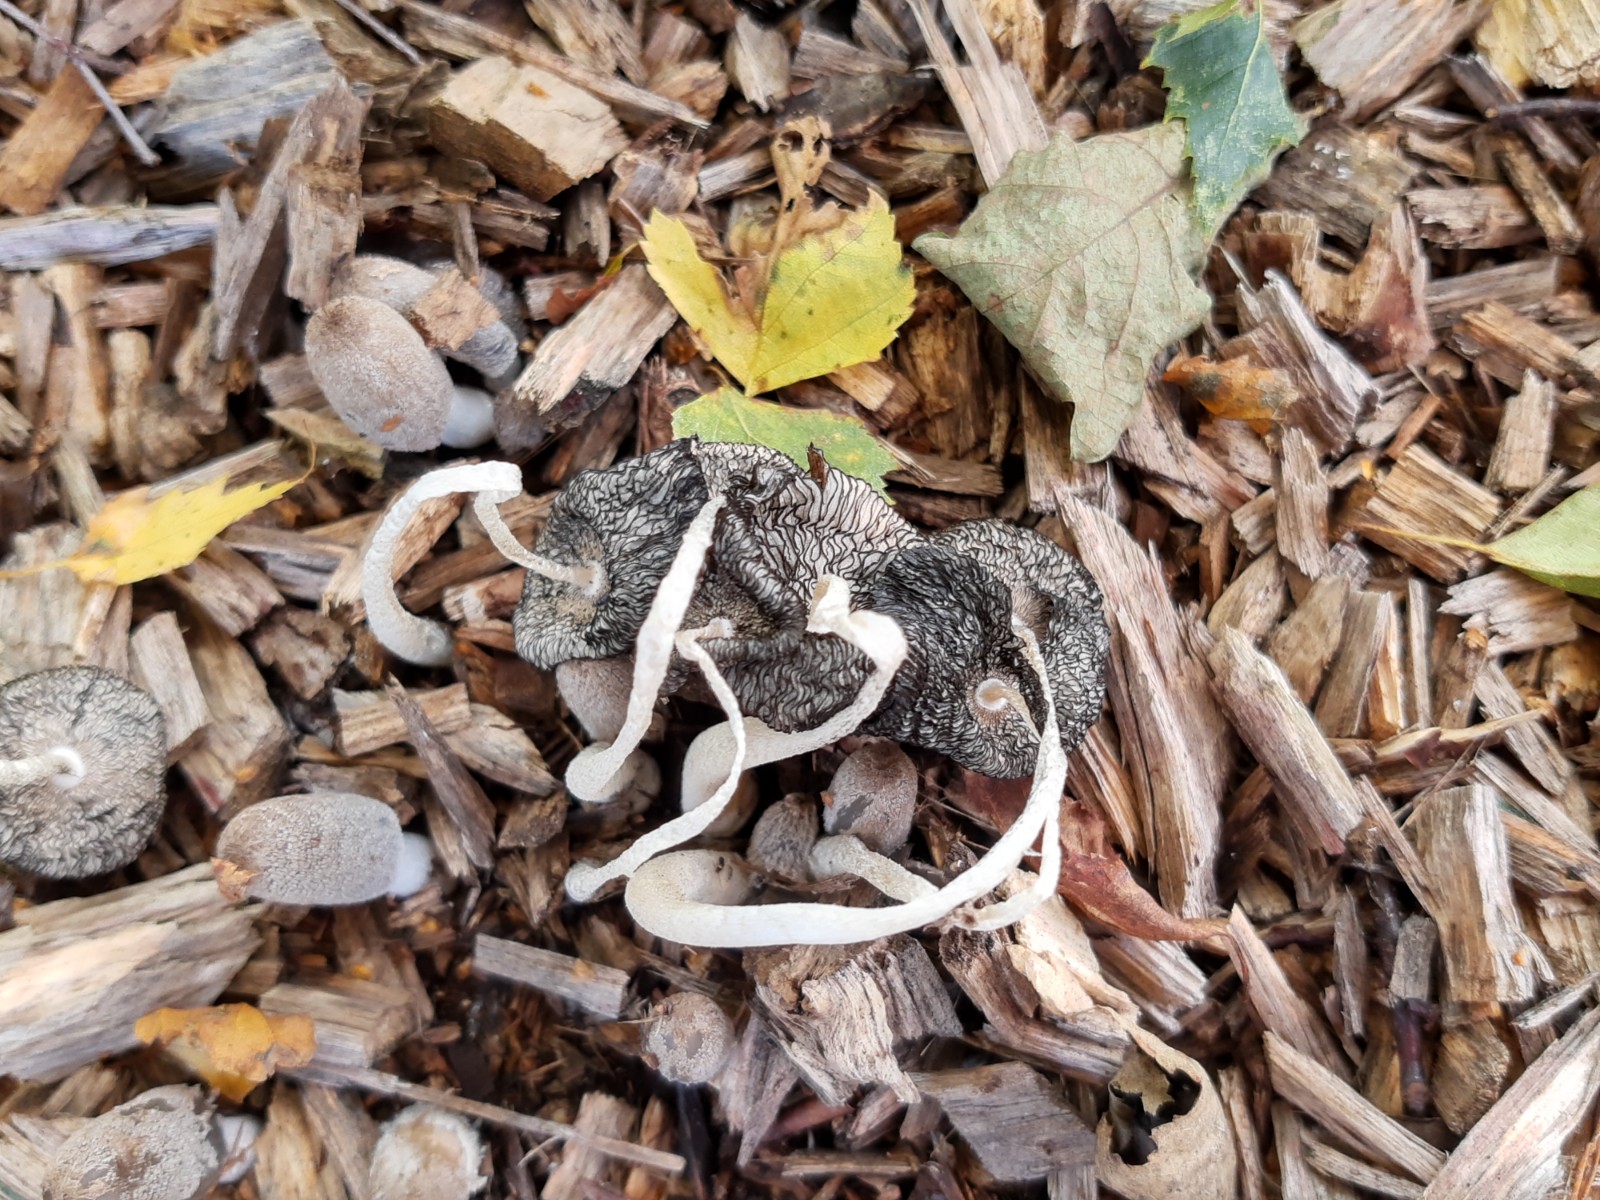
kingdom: Fungi
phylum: Basidiomycota
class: Agaricomycetes
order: Agaricales
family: Psathyrellaceae
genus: Coprinopsis
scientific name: Coprinopsis lagopus
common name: dunstokket blækhat
